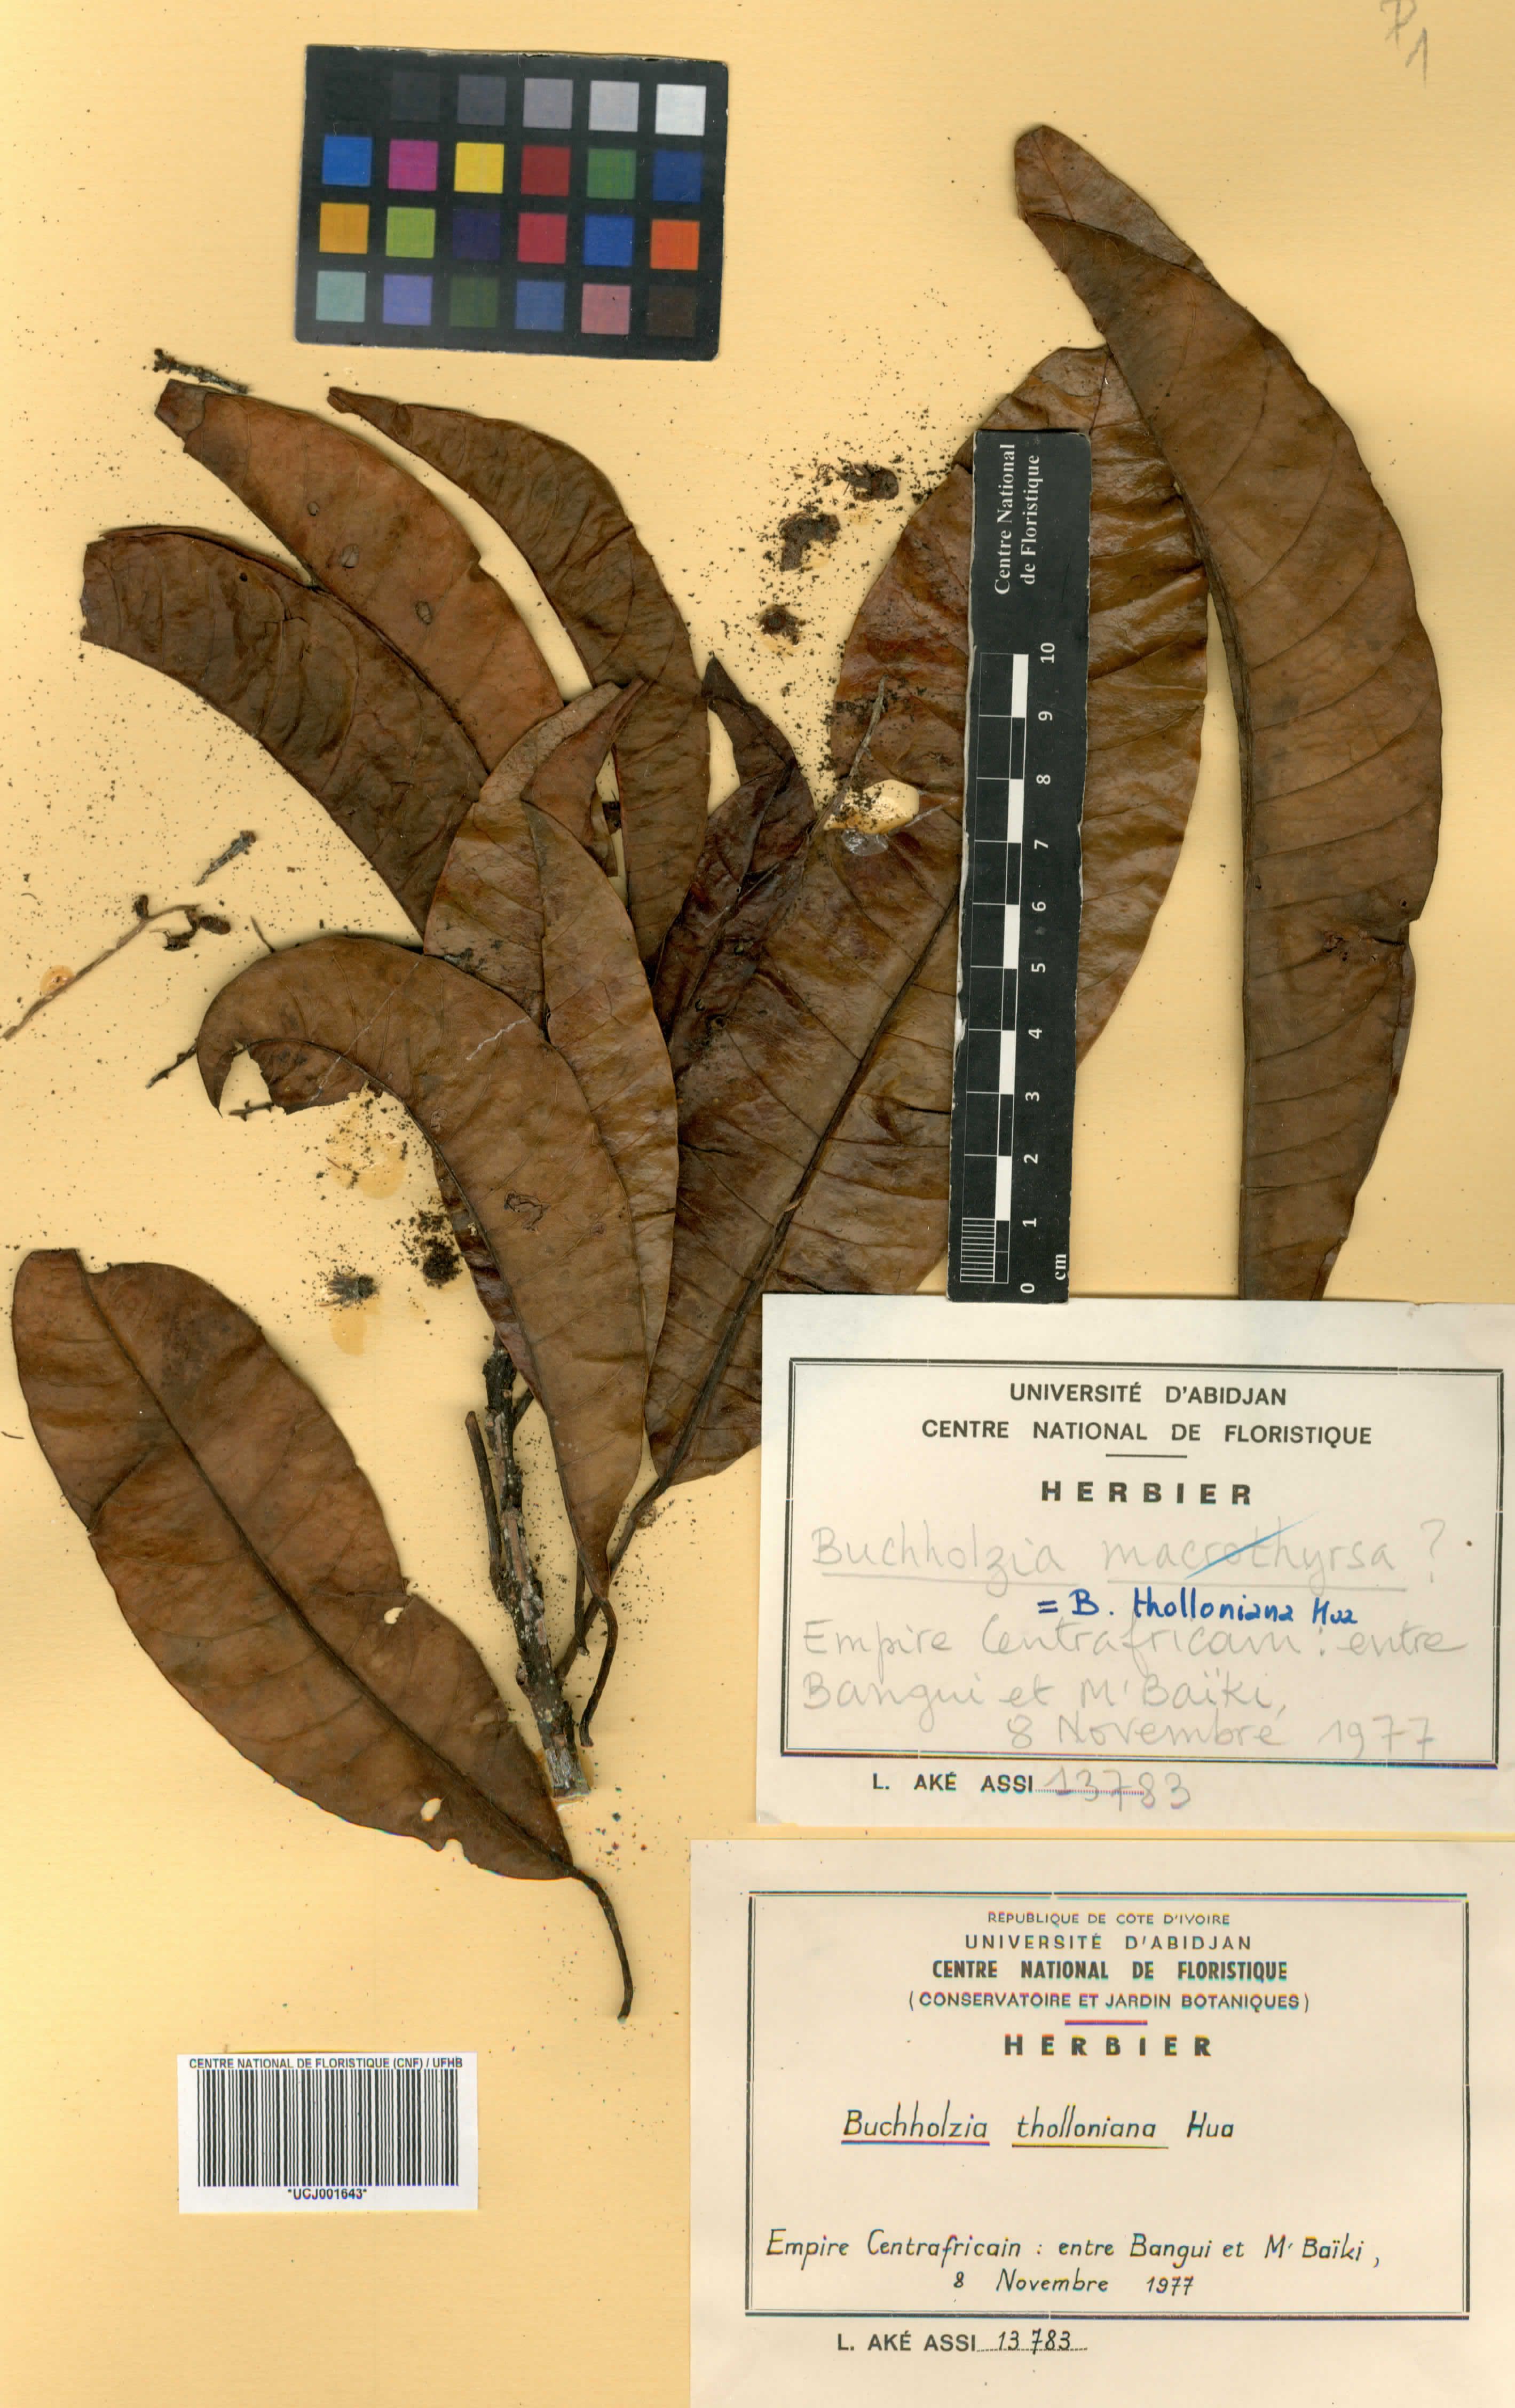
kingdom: Plantae
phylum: Tracheophyta
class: Magnoliopsida
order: Brassicales
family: Capparaceae
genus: Buchholzia
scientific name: Buchholzia tholloniana
